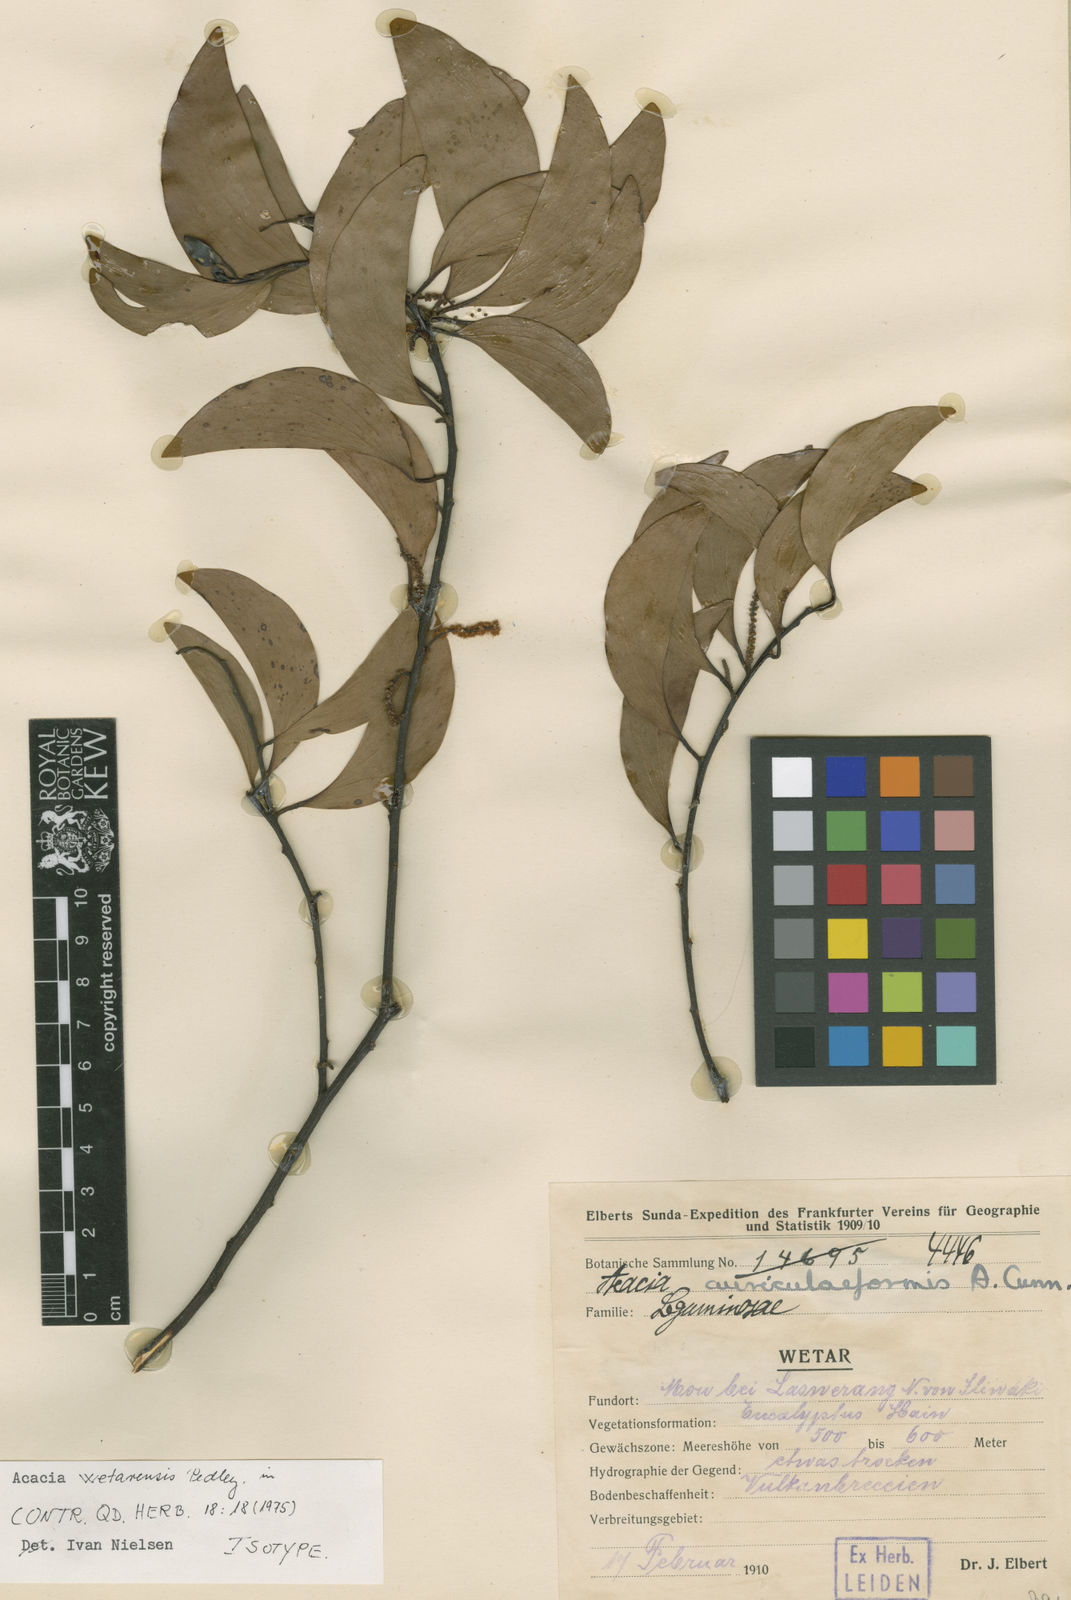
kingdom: Plantae
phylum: Tracheophyta
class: Magnoliopsida
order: Fabales
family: Fabaceae
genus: Acacia
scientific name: Acacia wetarensis
